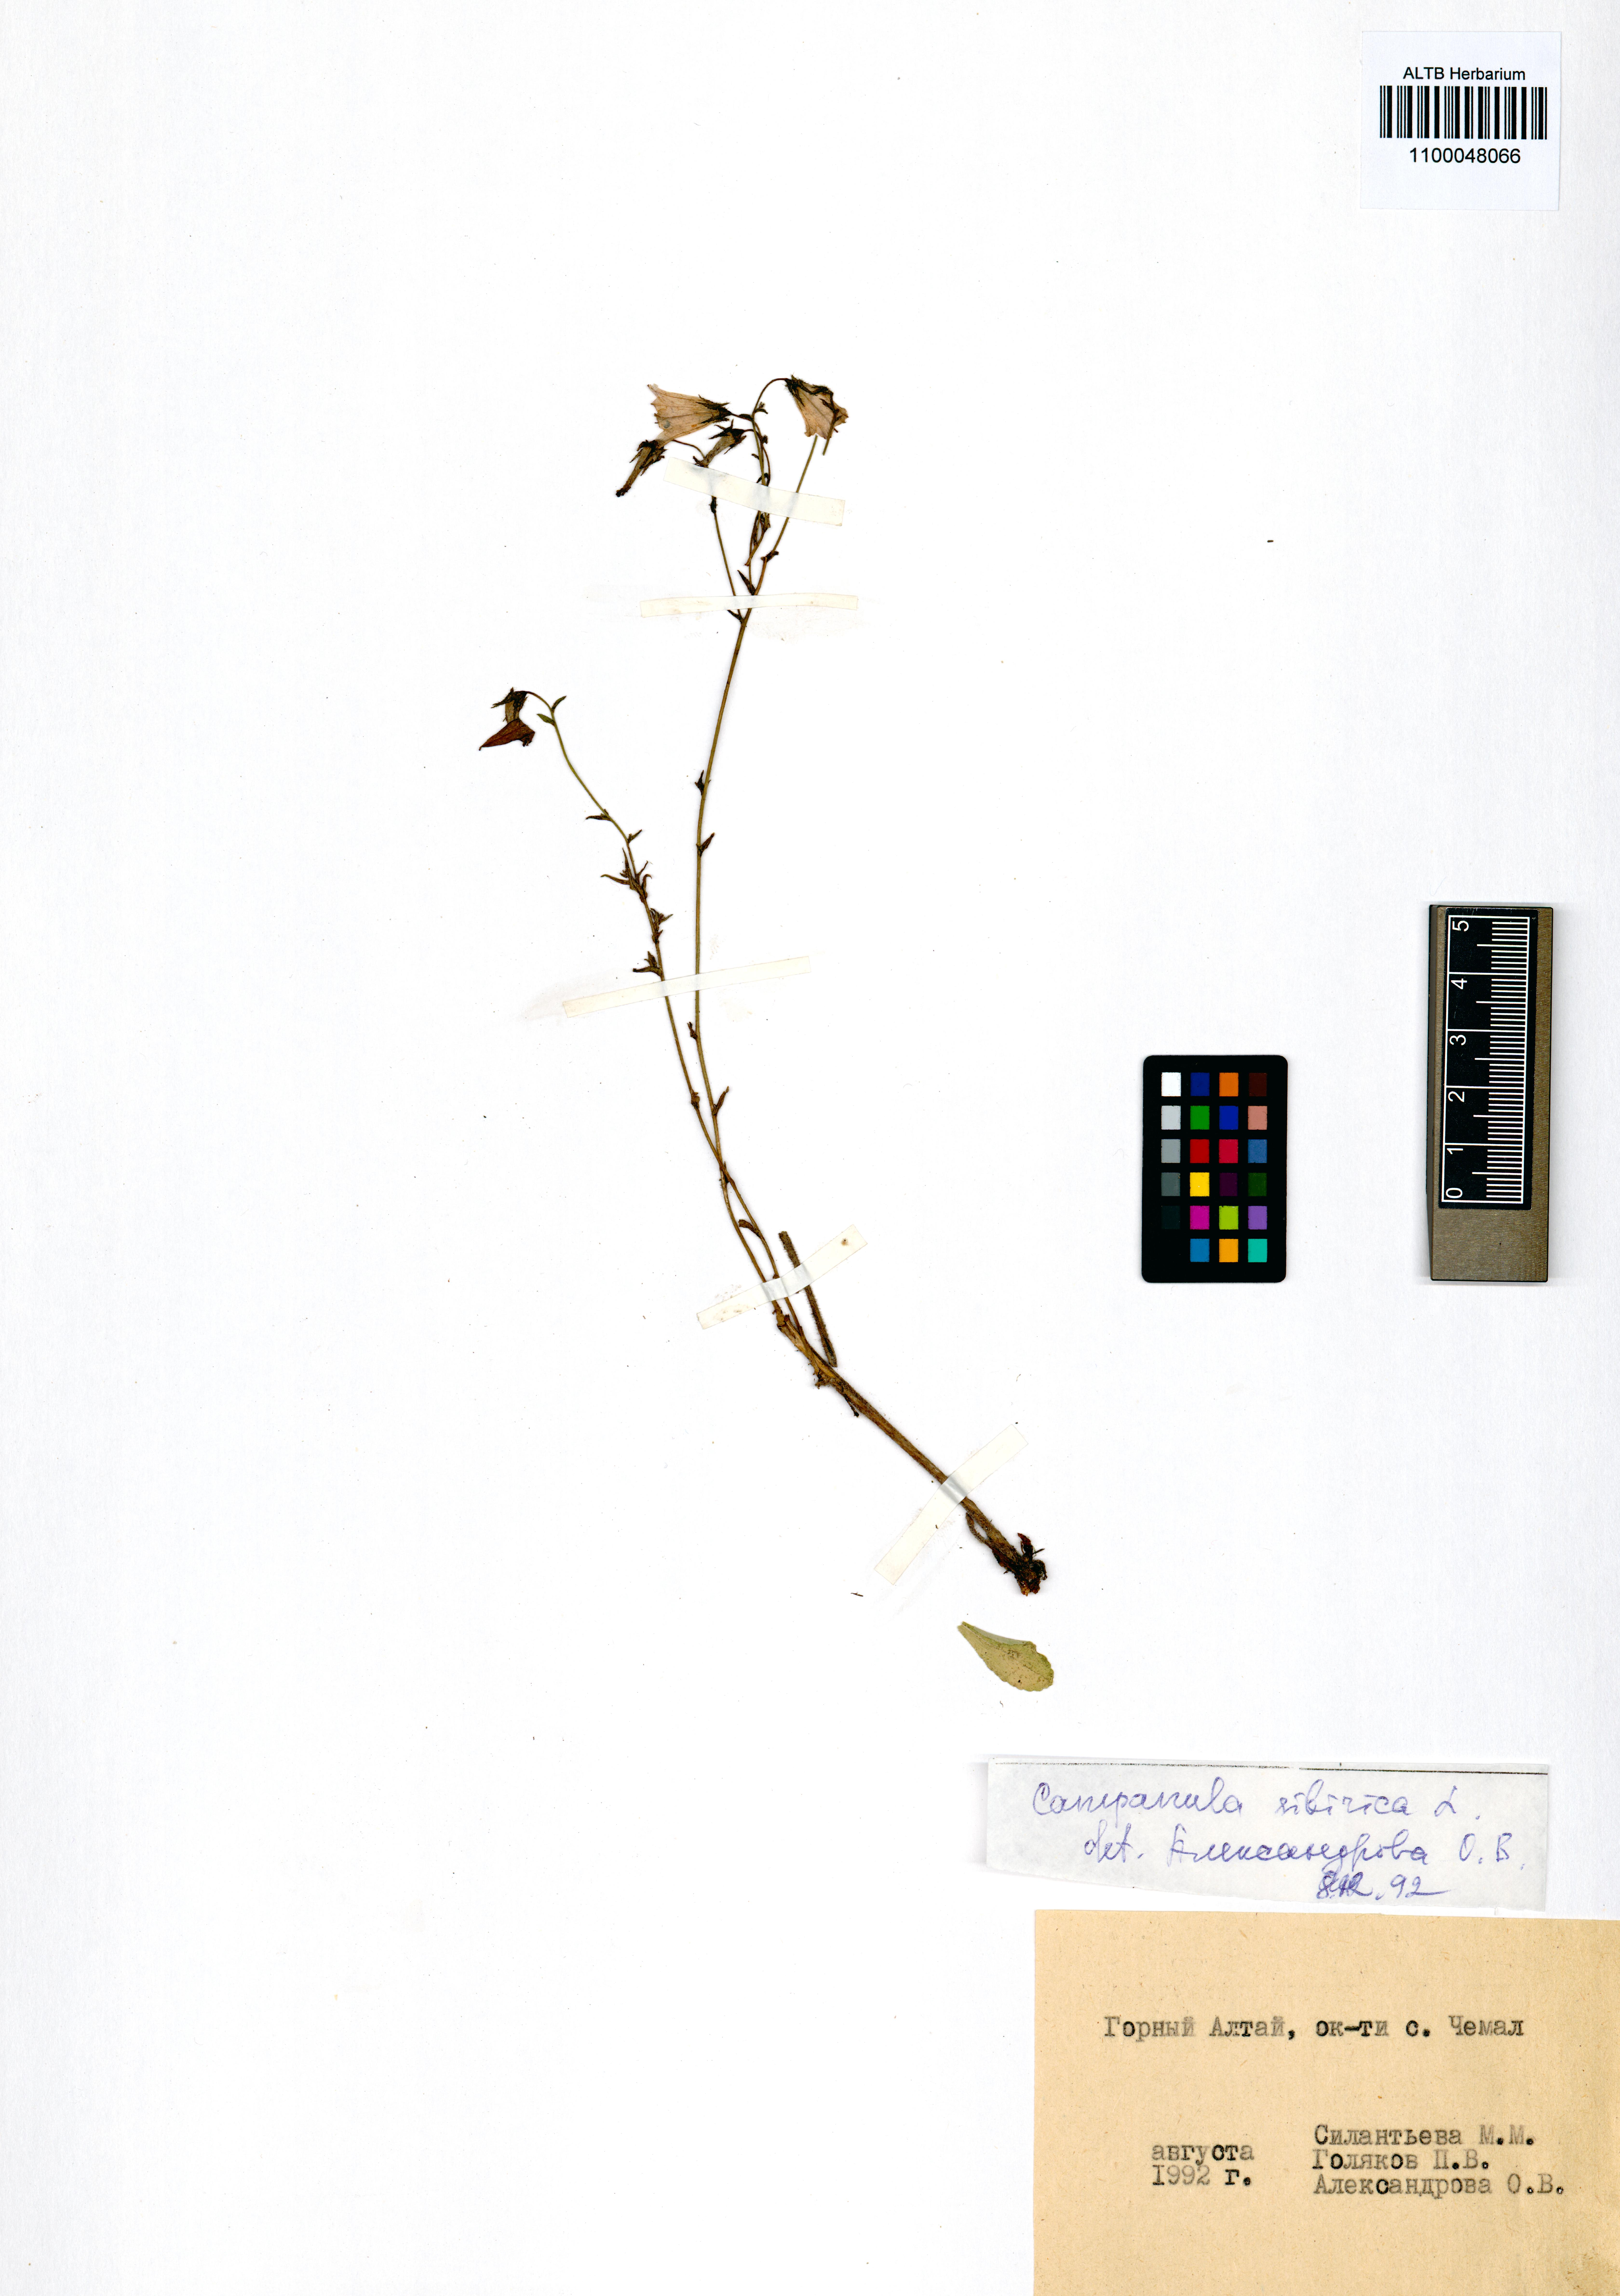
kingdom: Plantae
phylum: Tracheophyta
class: Magnoliopsida
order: Asterales
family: Campanulaceae
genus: Campanula
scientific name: Campanula sibirica
